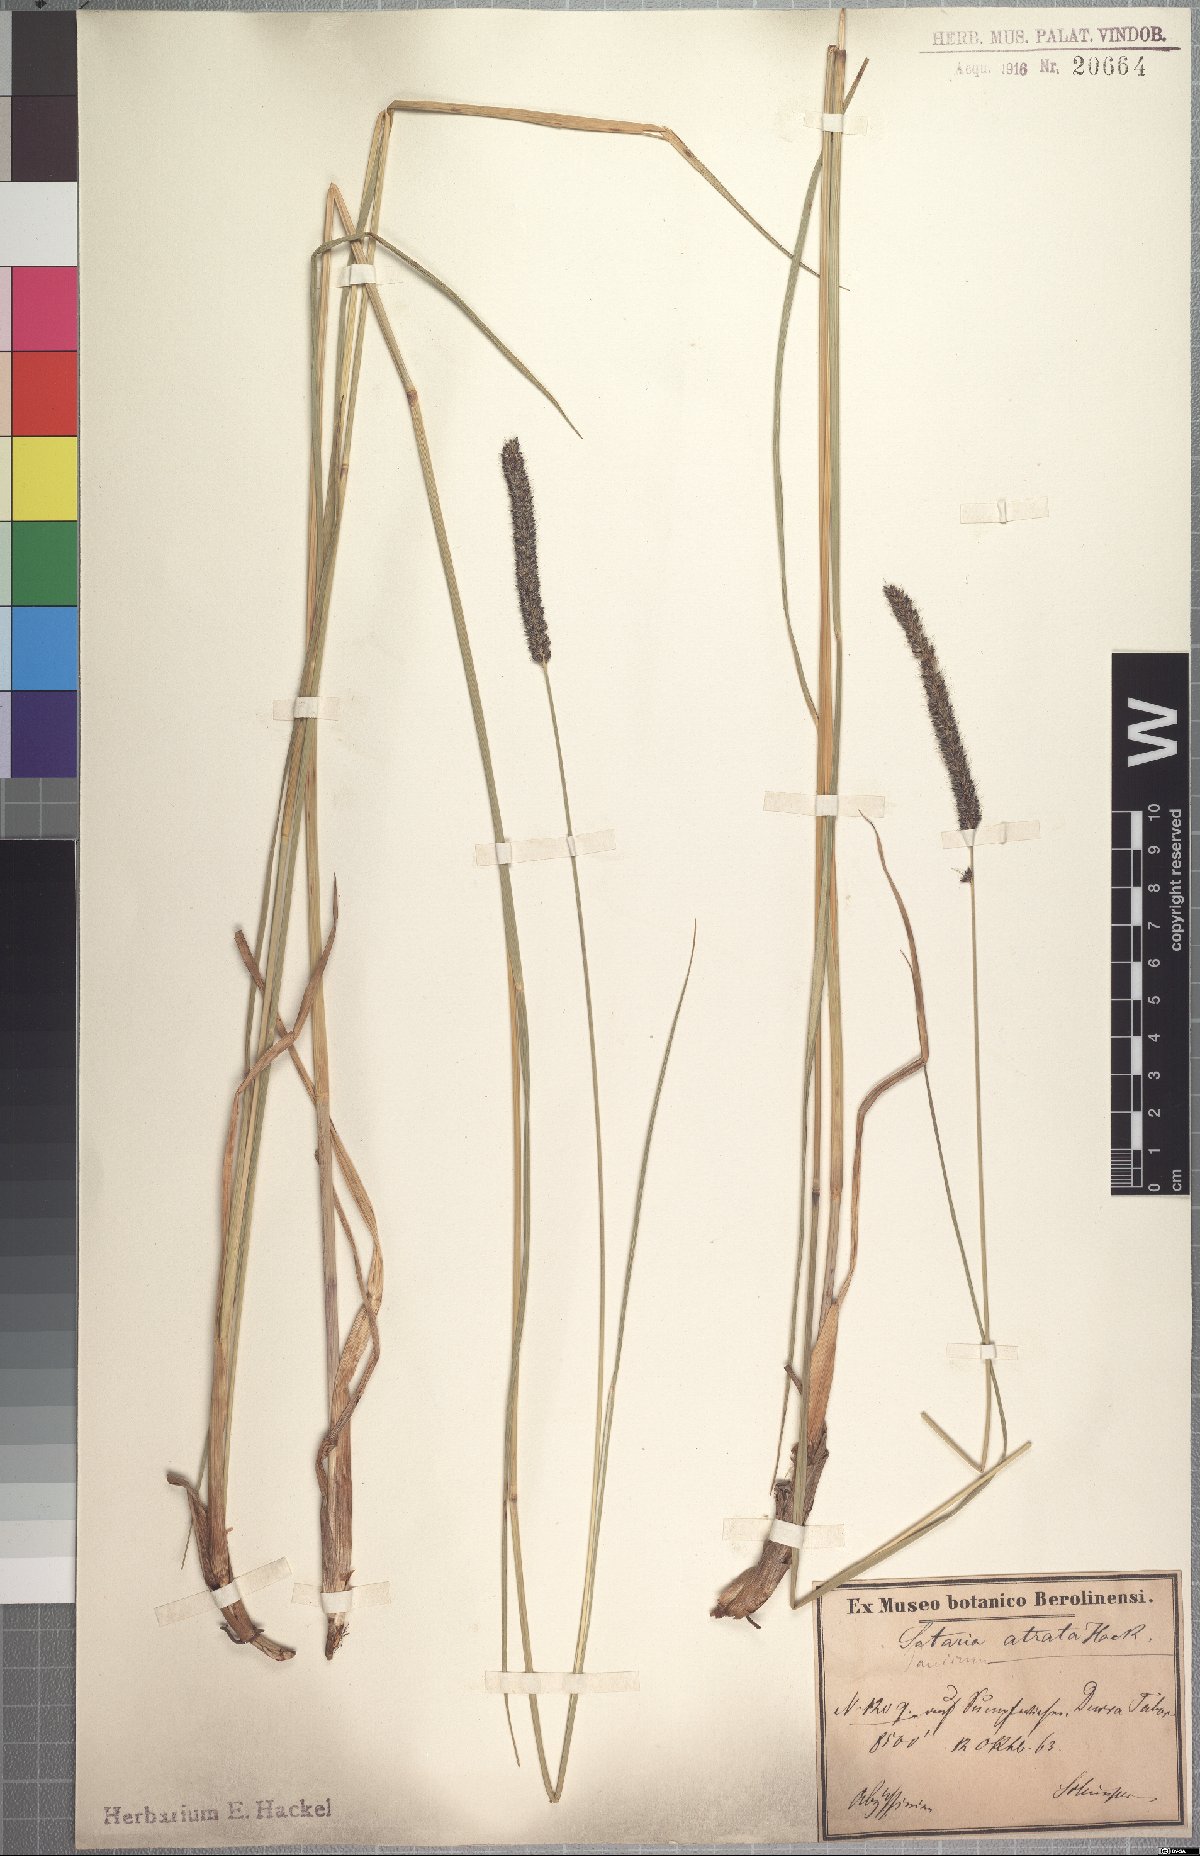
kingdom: Plantae
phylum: Tracheophyta
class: Liliopsida
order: Poales
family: Poaceae
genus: Setaria
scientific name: Setaria atrata
